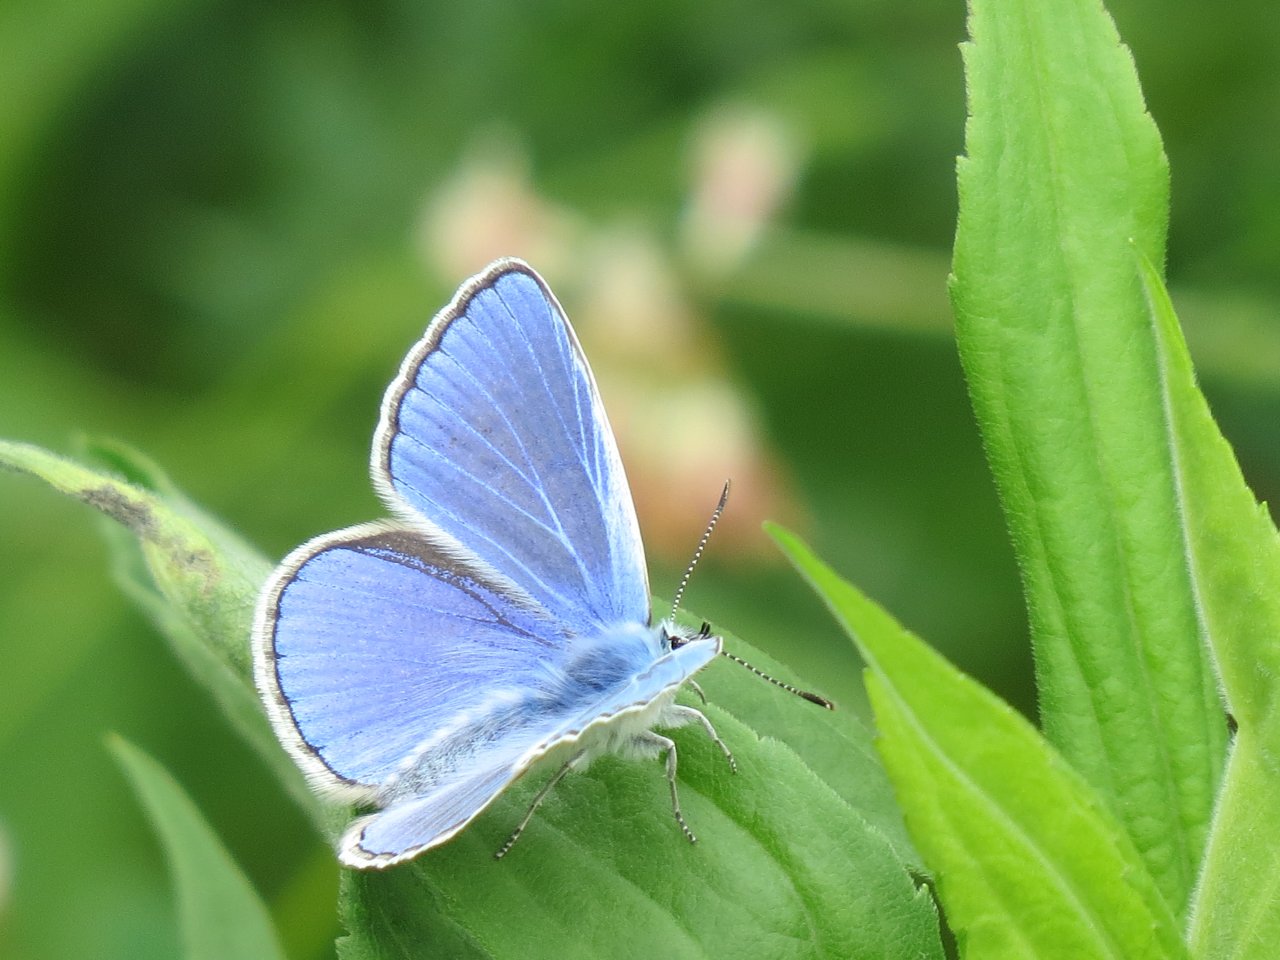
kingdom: Animalia
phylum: Arthropoda
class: Insecta
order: Lepidoptera
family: Lycaenidae
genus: Polyommatus
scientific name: Polyommatus icarus
